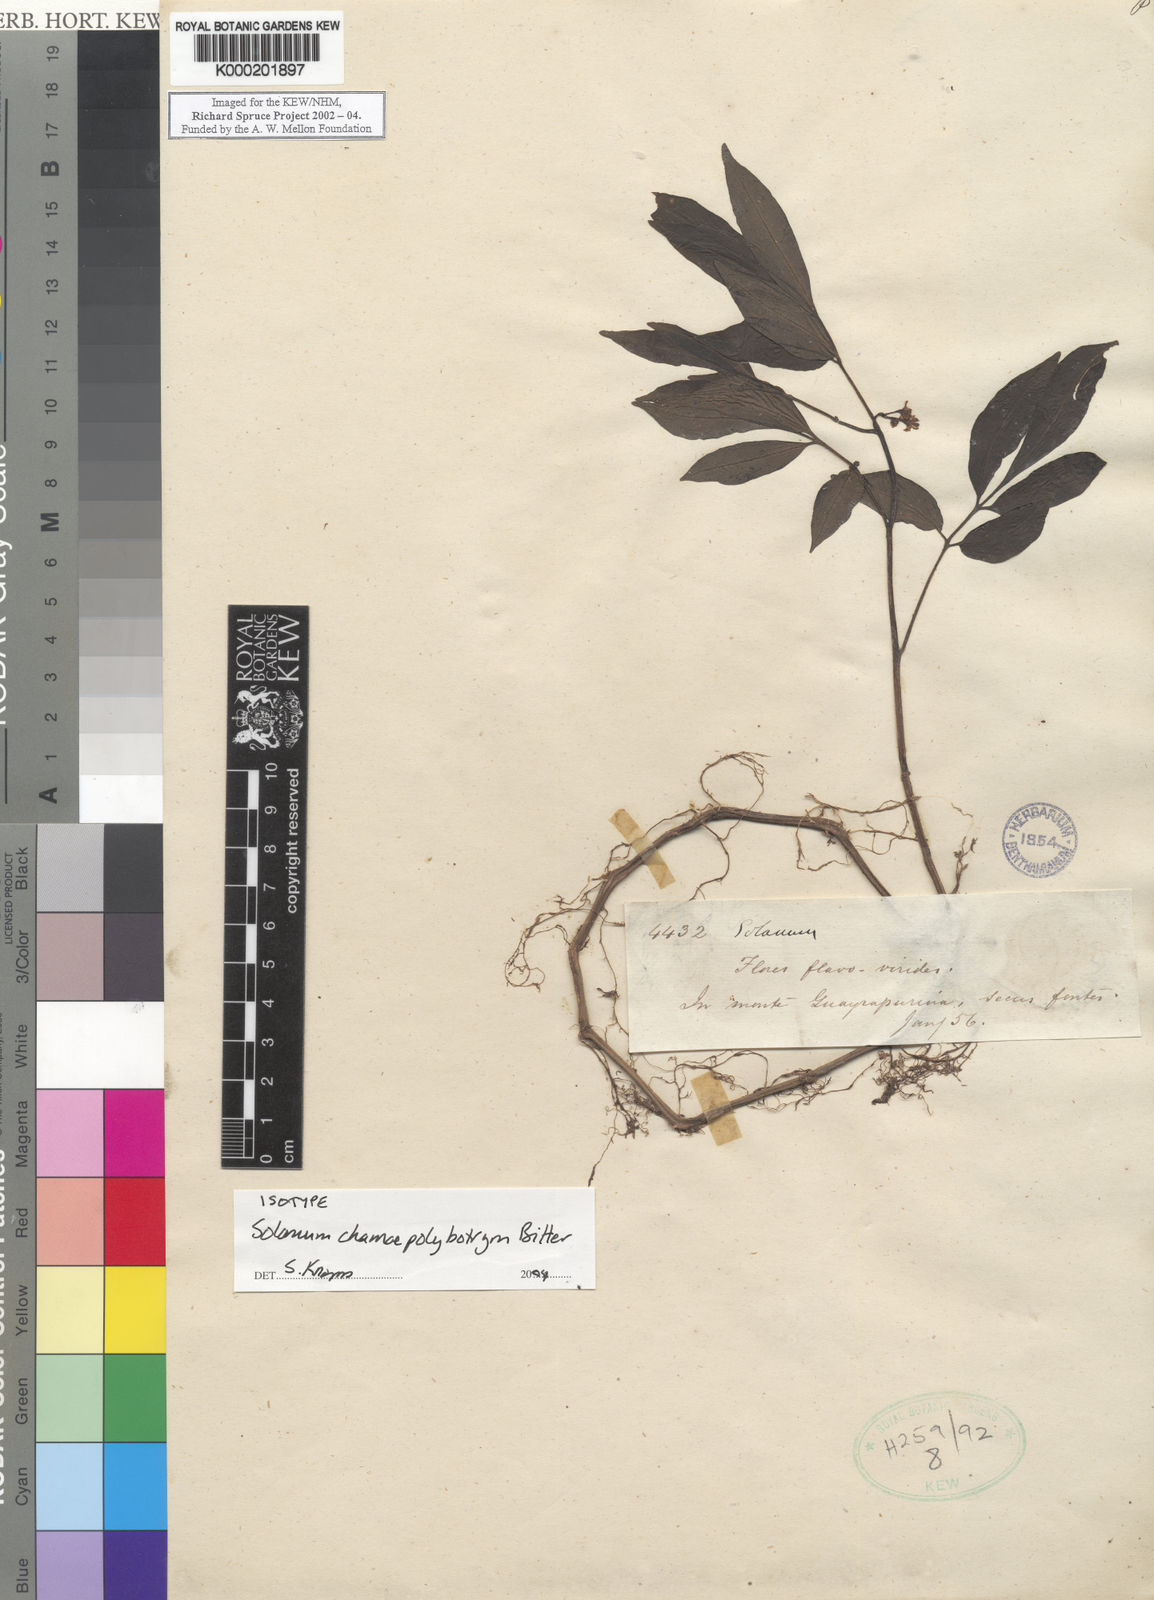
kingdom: Plantae
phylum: Tracheophyta
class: Magnoliopsida
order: Solanales
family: Solanaceae
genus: Solanum
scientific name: Solanum trizygum
